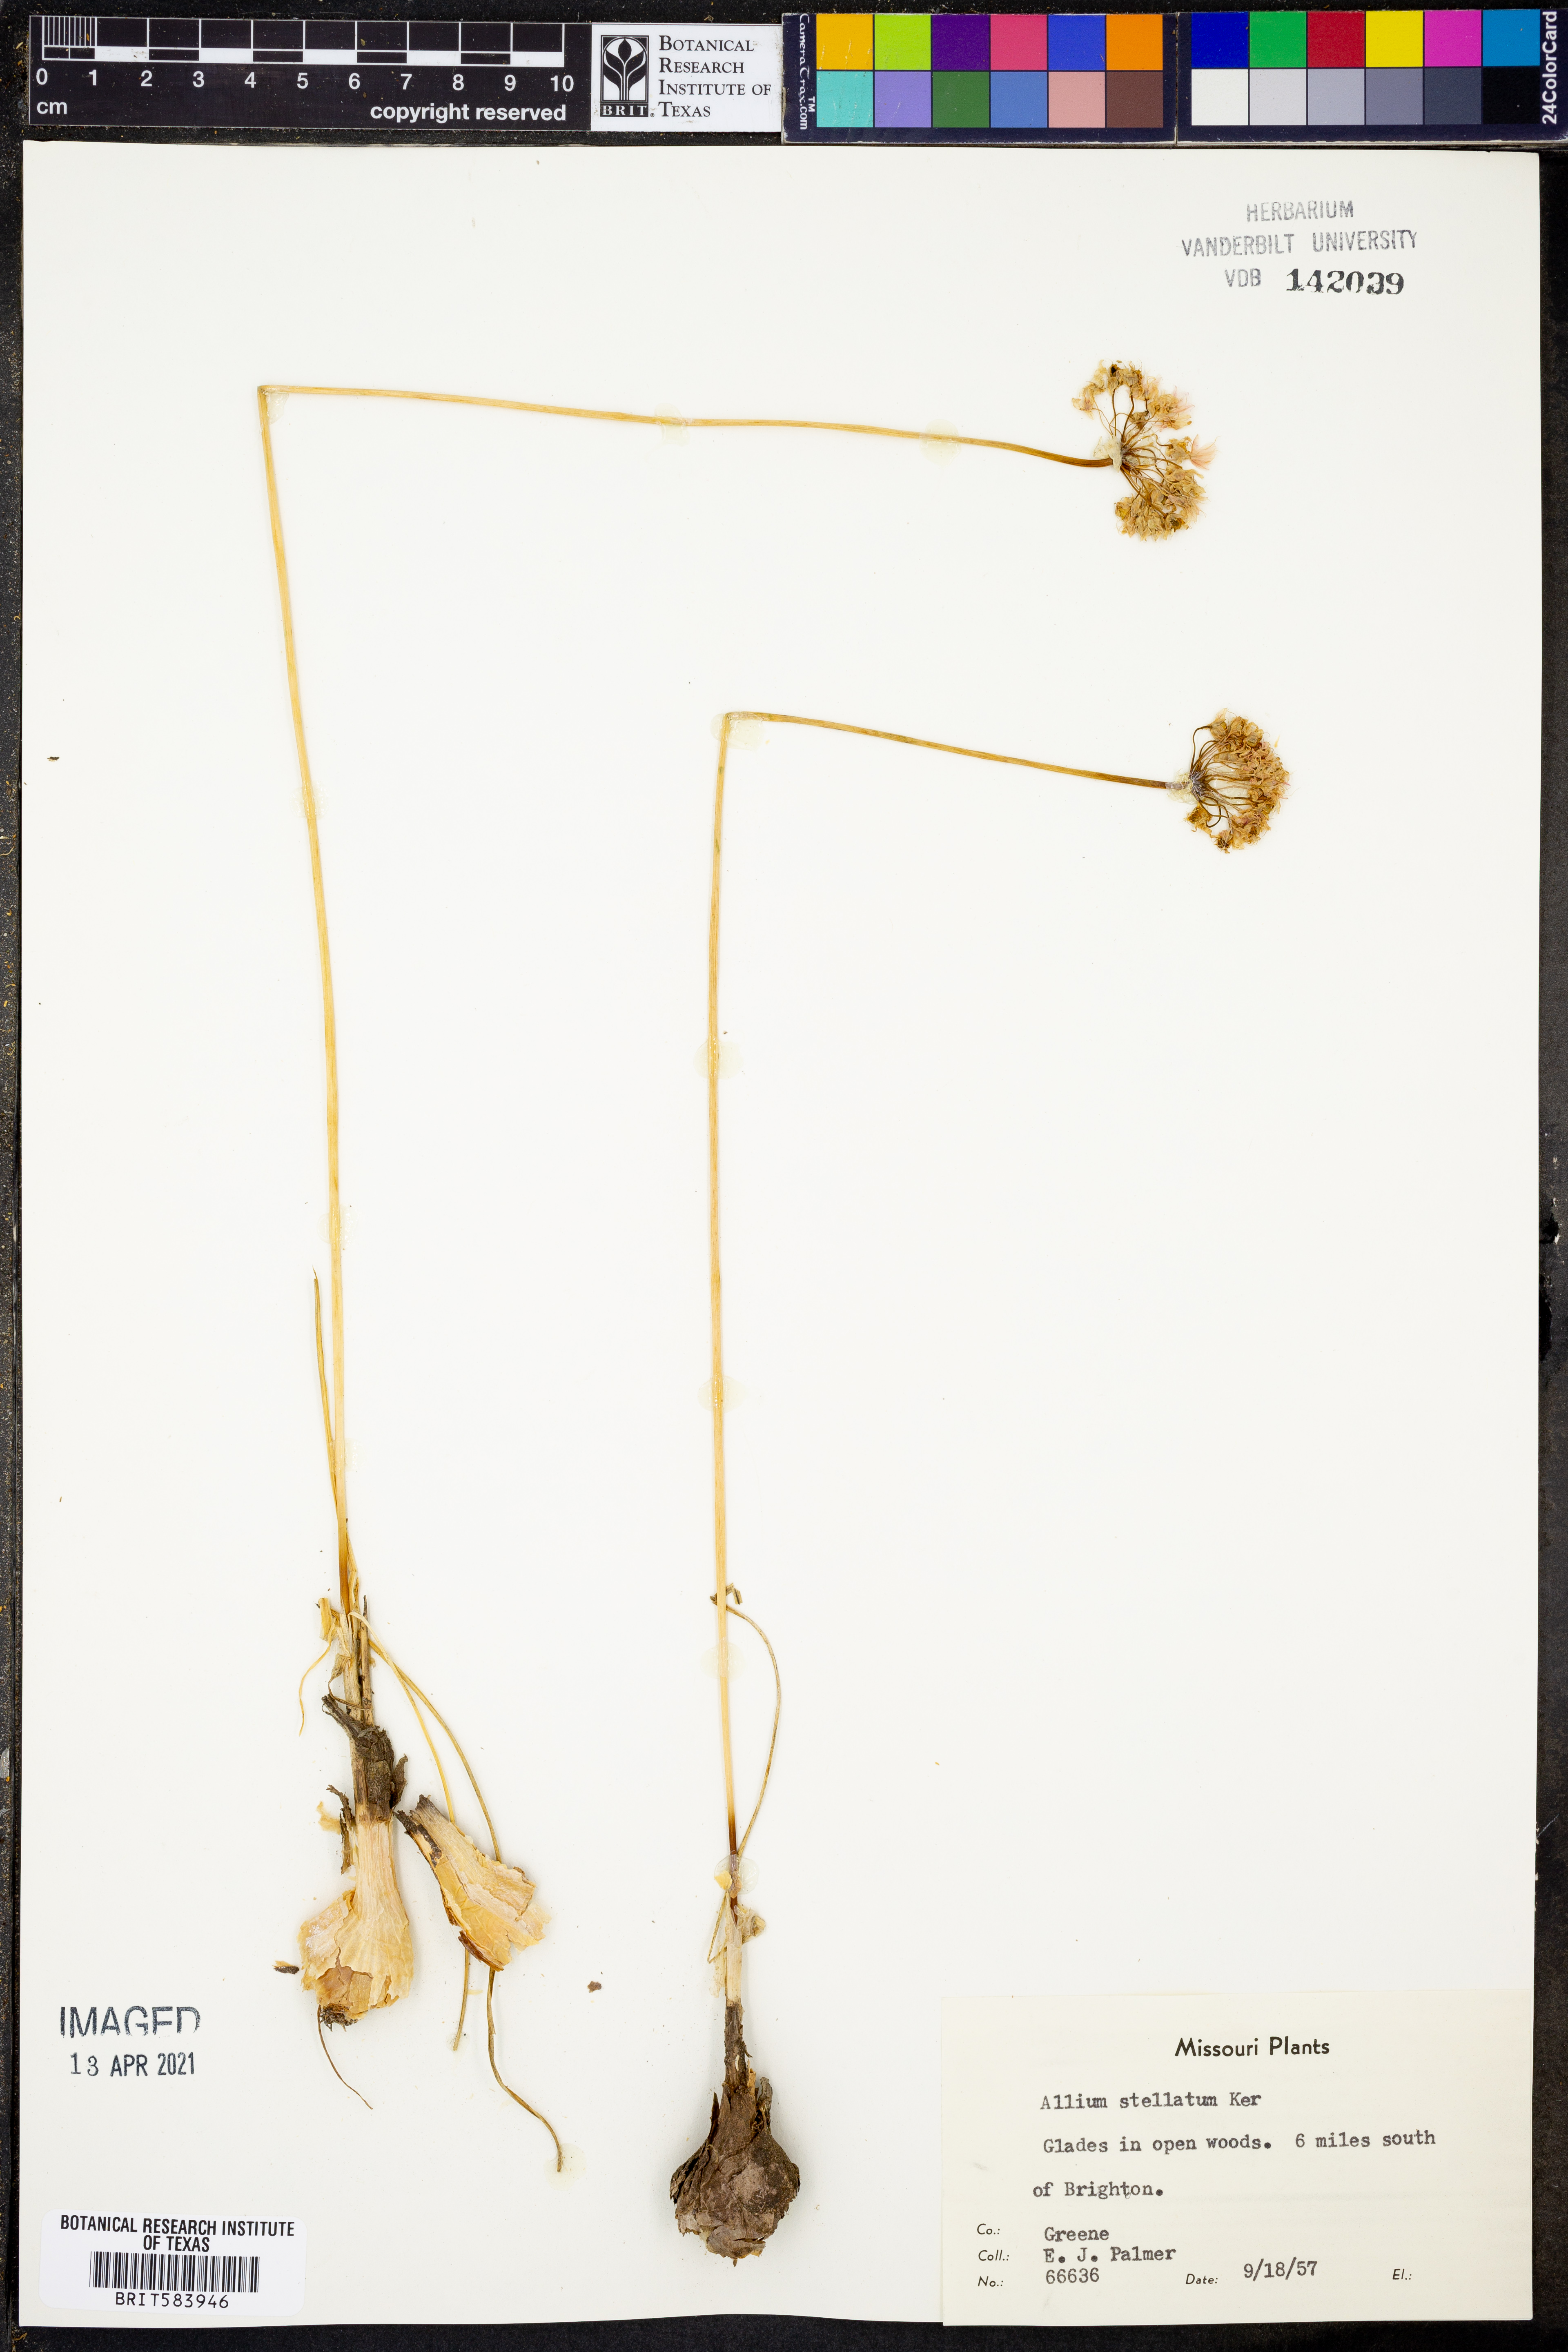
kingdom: Plantae
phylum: Tracheophyta
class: Liliopsida
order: Asparagales
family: Amaryllidaceae
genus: Allium
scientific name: Allium stellatum
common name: Autumn onion
